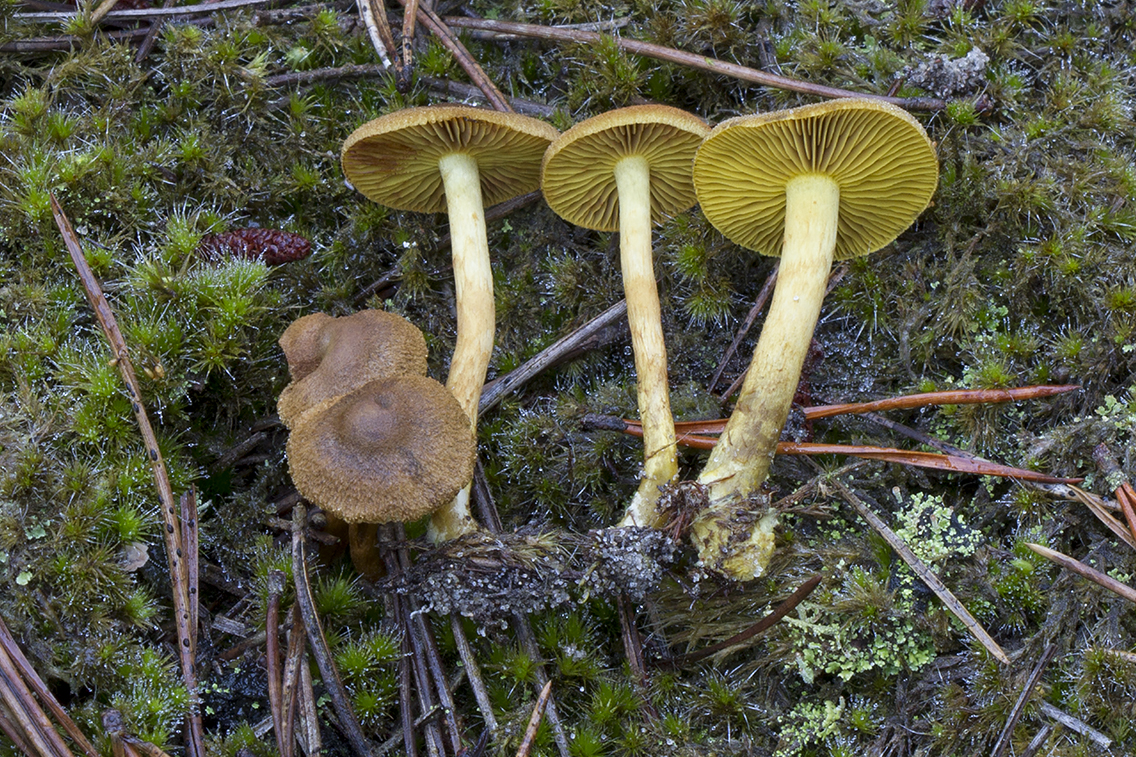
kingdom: Fungi
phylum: Basidiomycota
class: Agaricomycetes
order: Agaricales
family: Cortinariaceae
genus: Cortinarius
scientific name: Cortinarius holoxanthus
